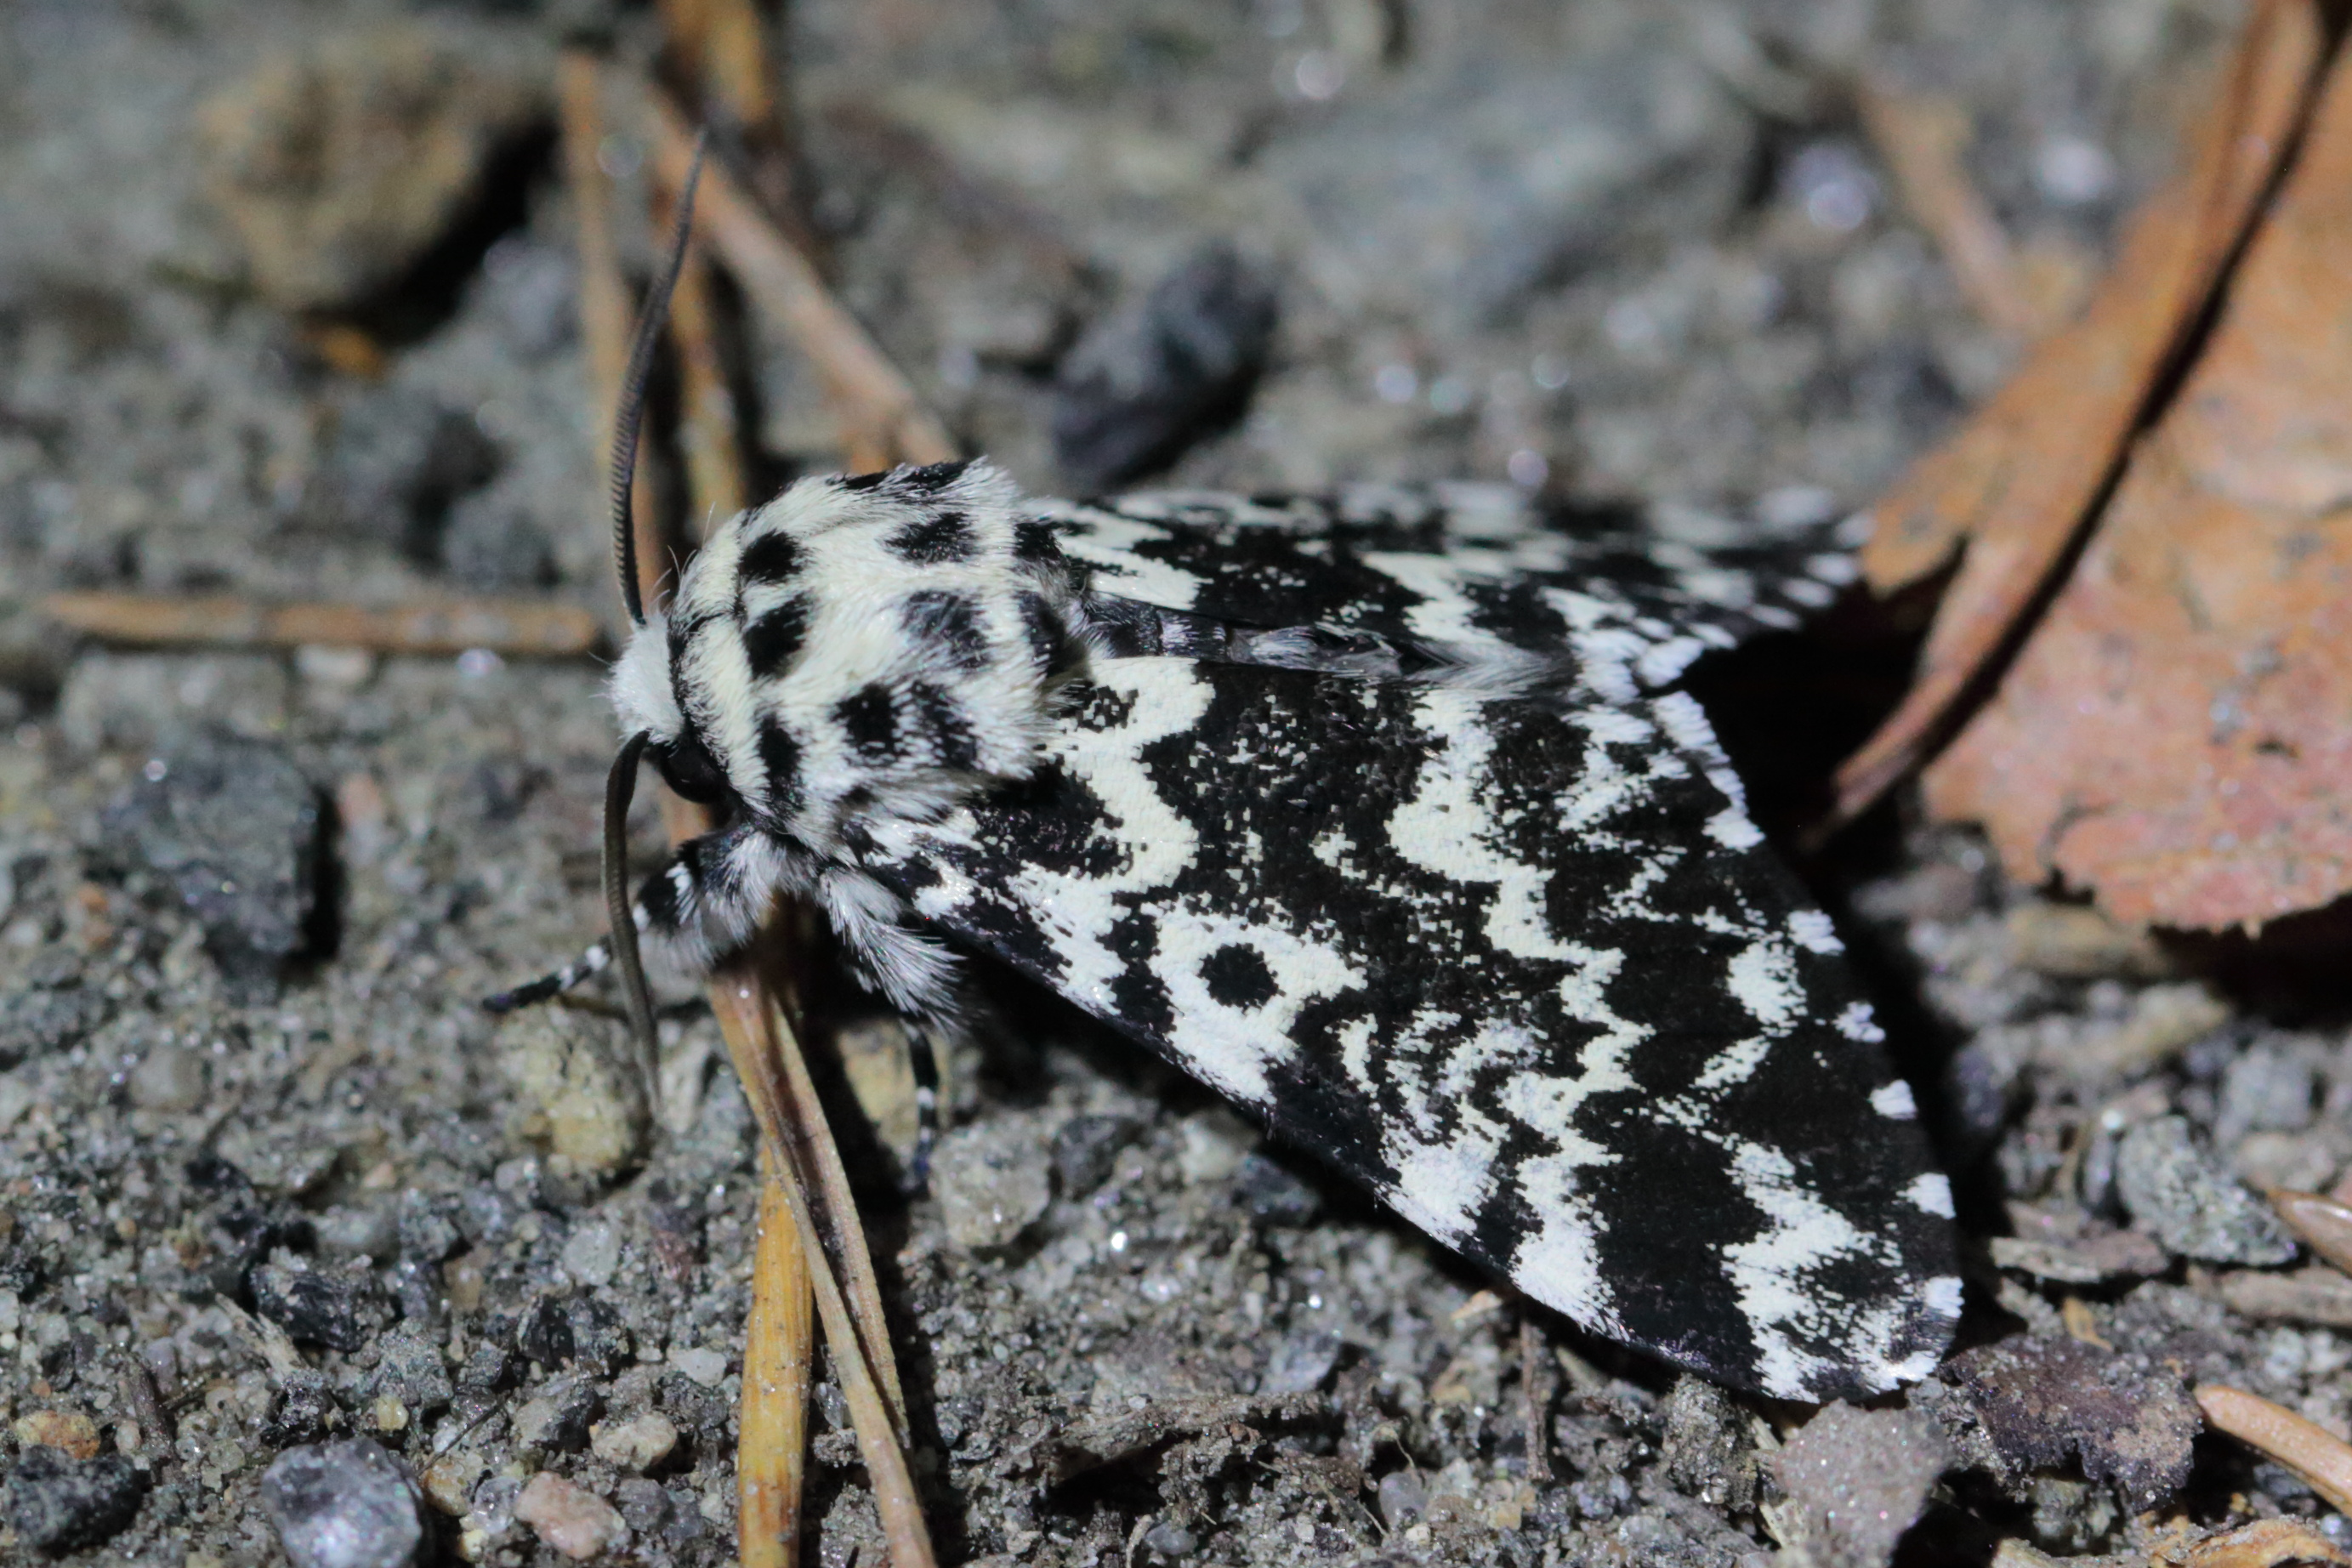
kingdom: Animalia
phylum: Arthropoda
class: Insecta
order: Lepidoptera
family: Noctuidae
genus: Panthea
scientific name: Panthea coenobita
